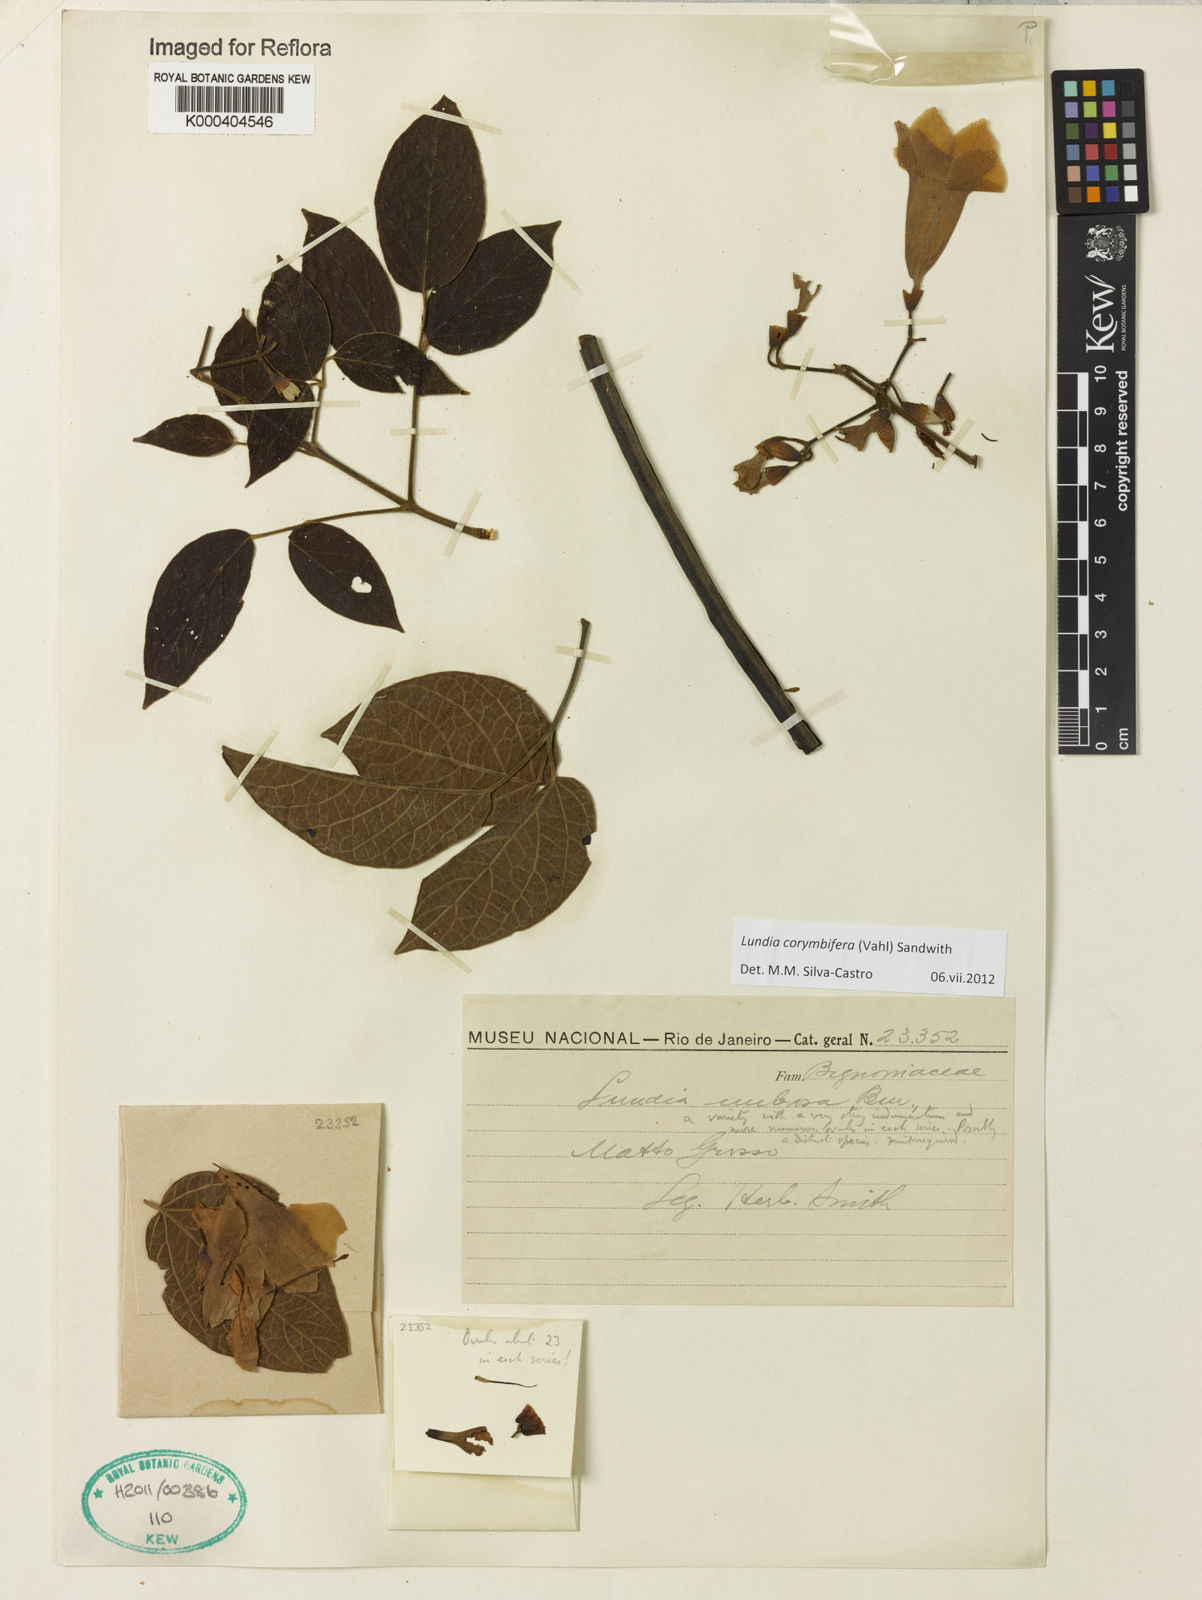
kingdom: Plantae
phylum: Tracheophyta
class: Magnoliopsida
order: Lamiales
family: Bignoniaceae
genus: Lundia
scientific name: Lundia corymbifera
